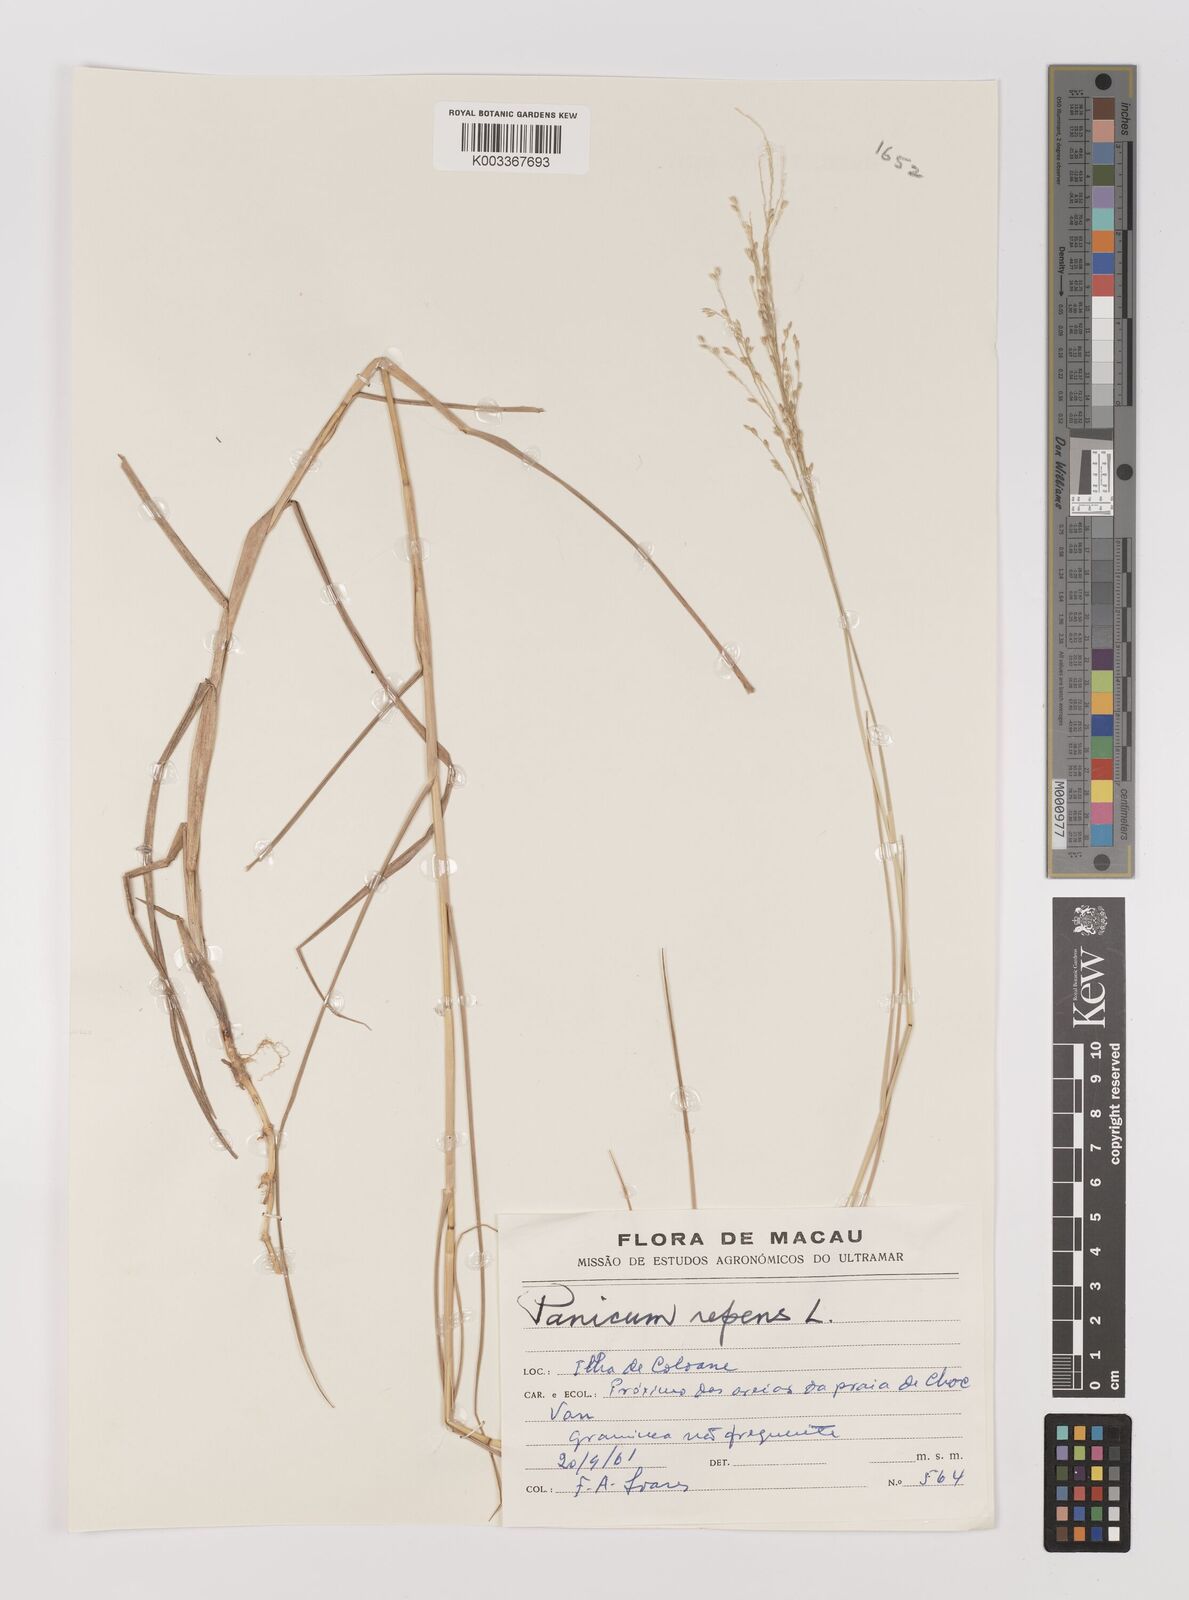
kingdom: Plantae
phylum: Tracheophyta
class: Liliopsida
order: Poales
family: Poaceae
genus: Panicum
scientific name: Panicum repens
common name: Torpedo grass
